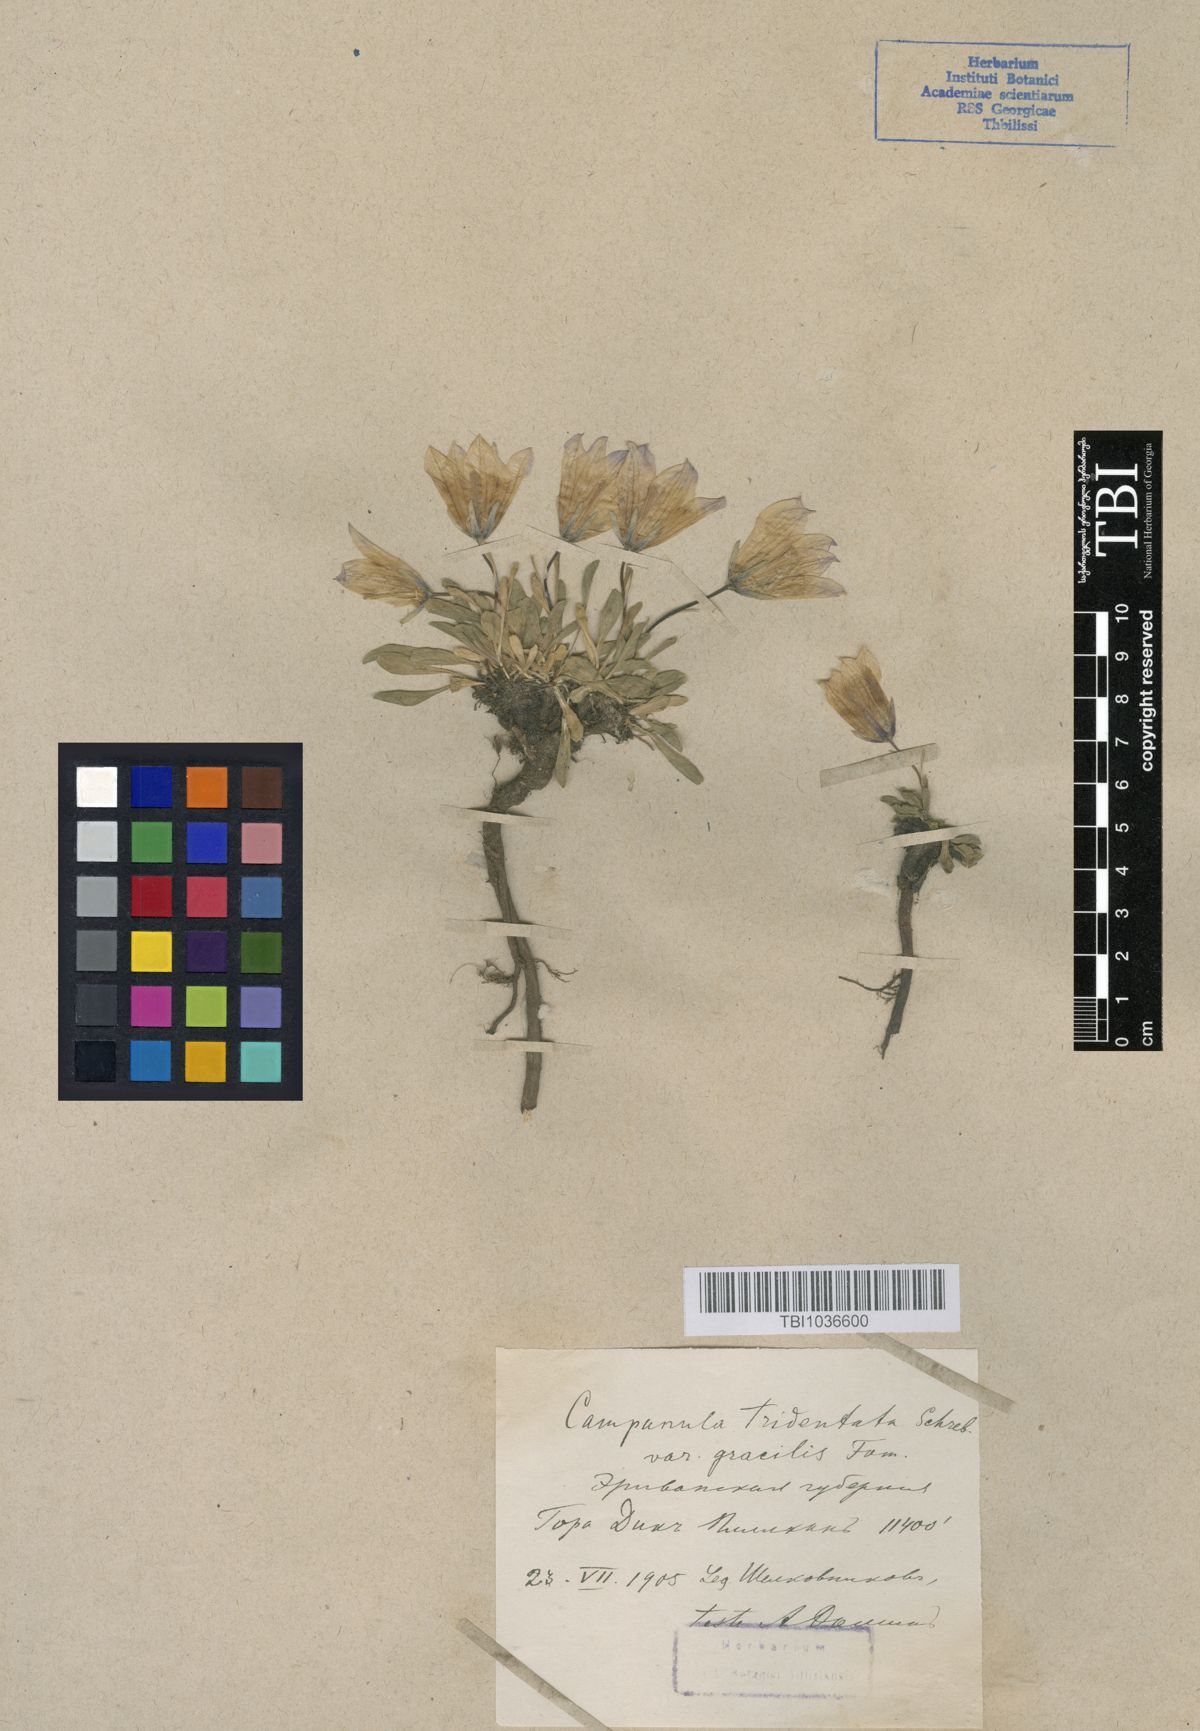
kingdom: Plantae
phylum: Tracheophyta
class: Magnoliopsida
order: Asterales
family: Campanulaceae
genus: Campanula
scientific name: Campanula tridentata
